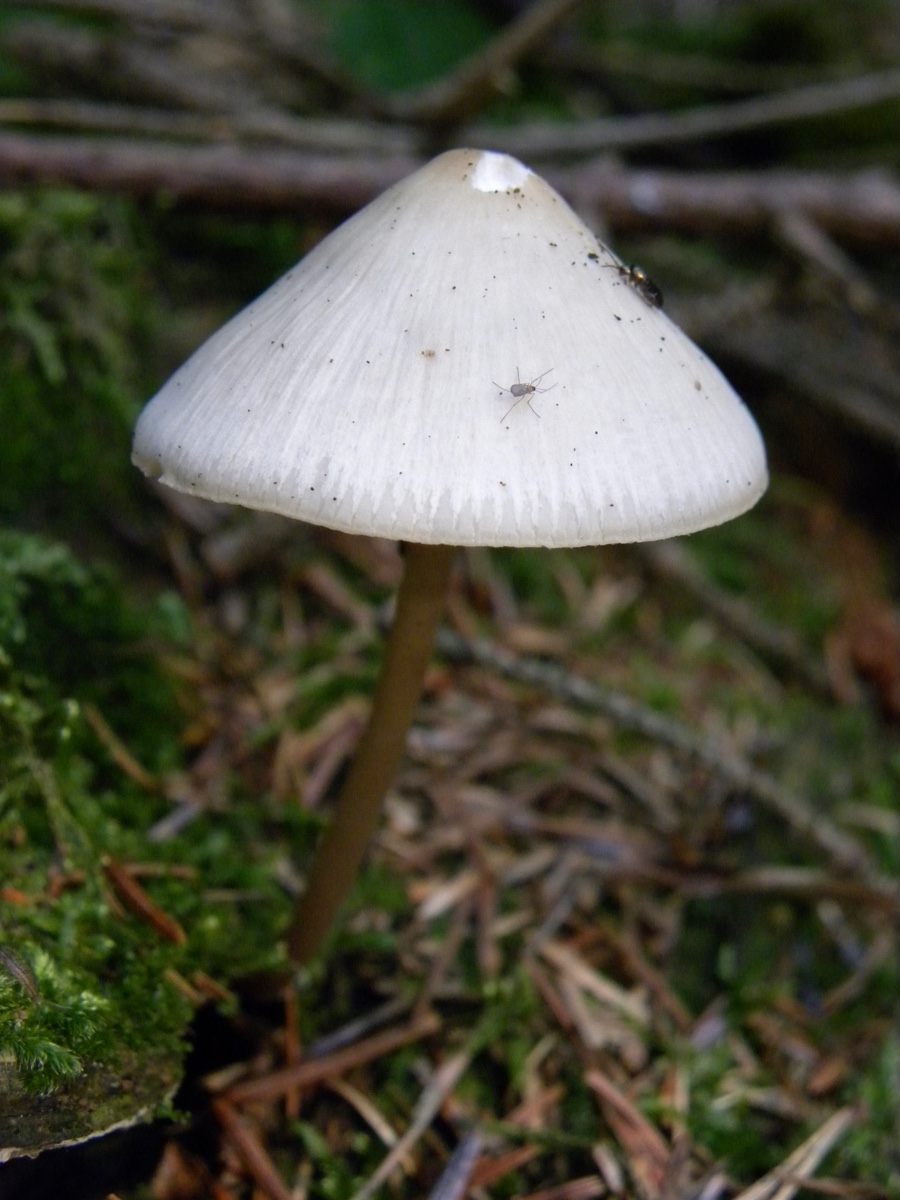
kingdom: Fungi
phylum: Basidiomycota
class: Agaricomycetes
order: Agaricales
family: Mycenaceae
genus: Mycena
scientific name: Mycena
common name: huesvamp
